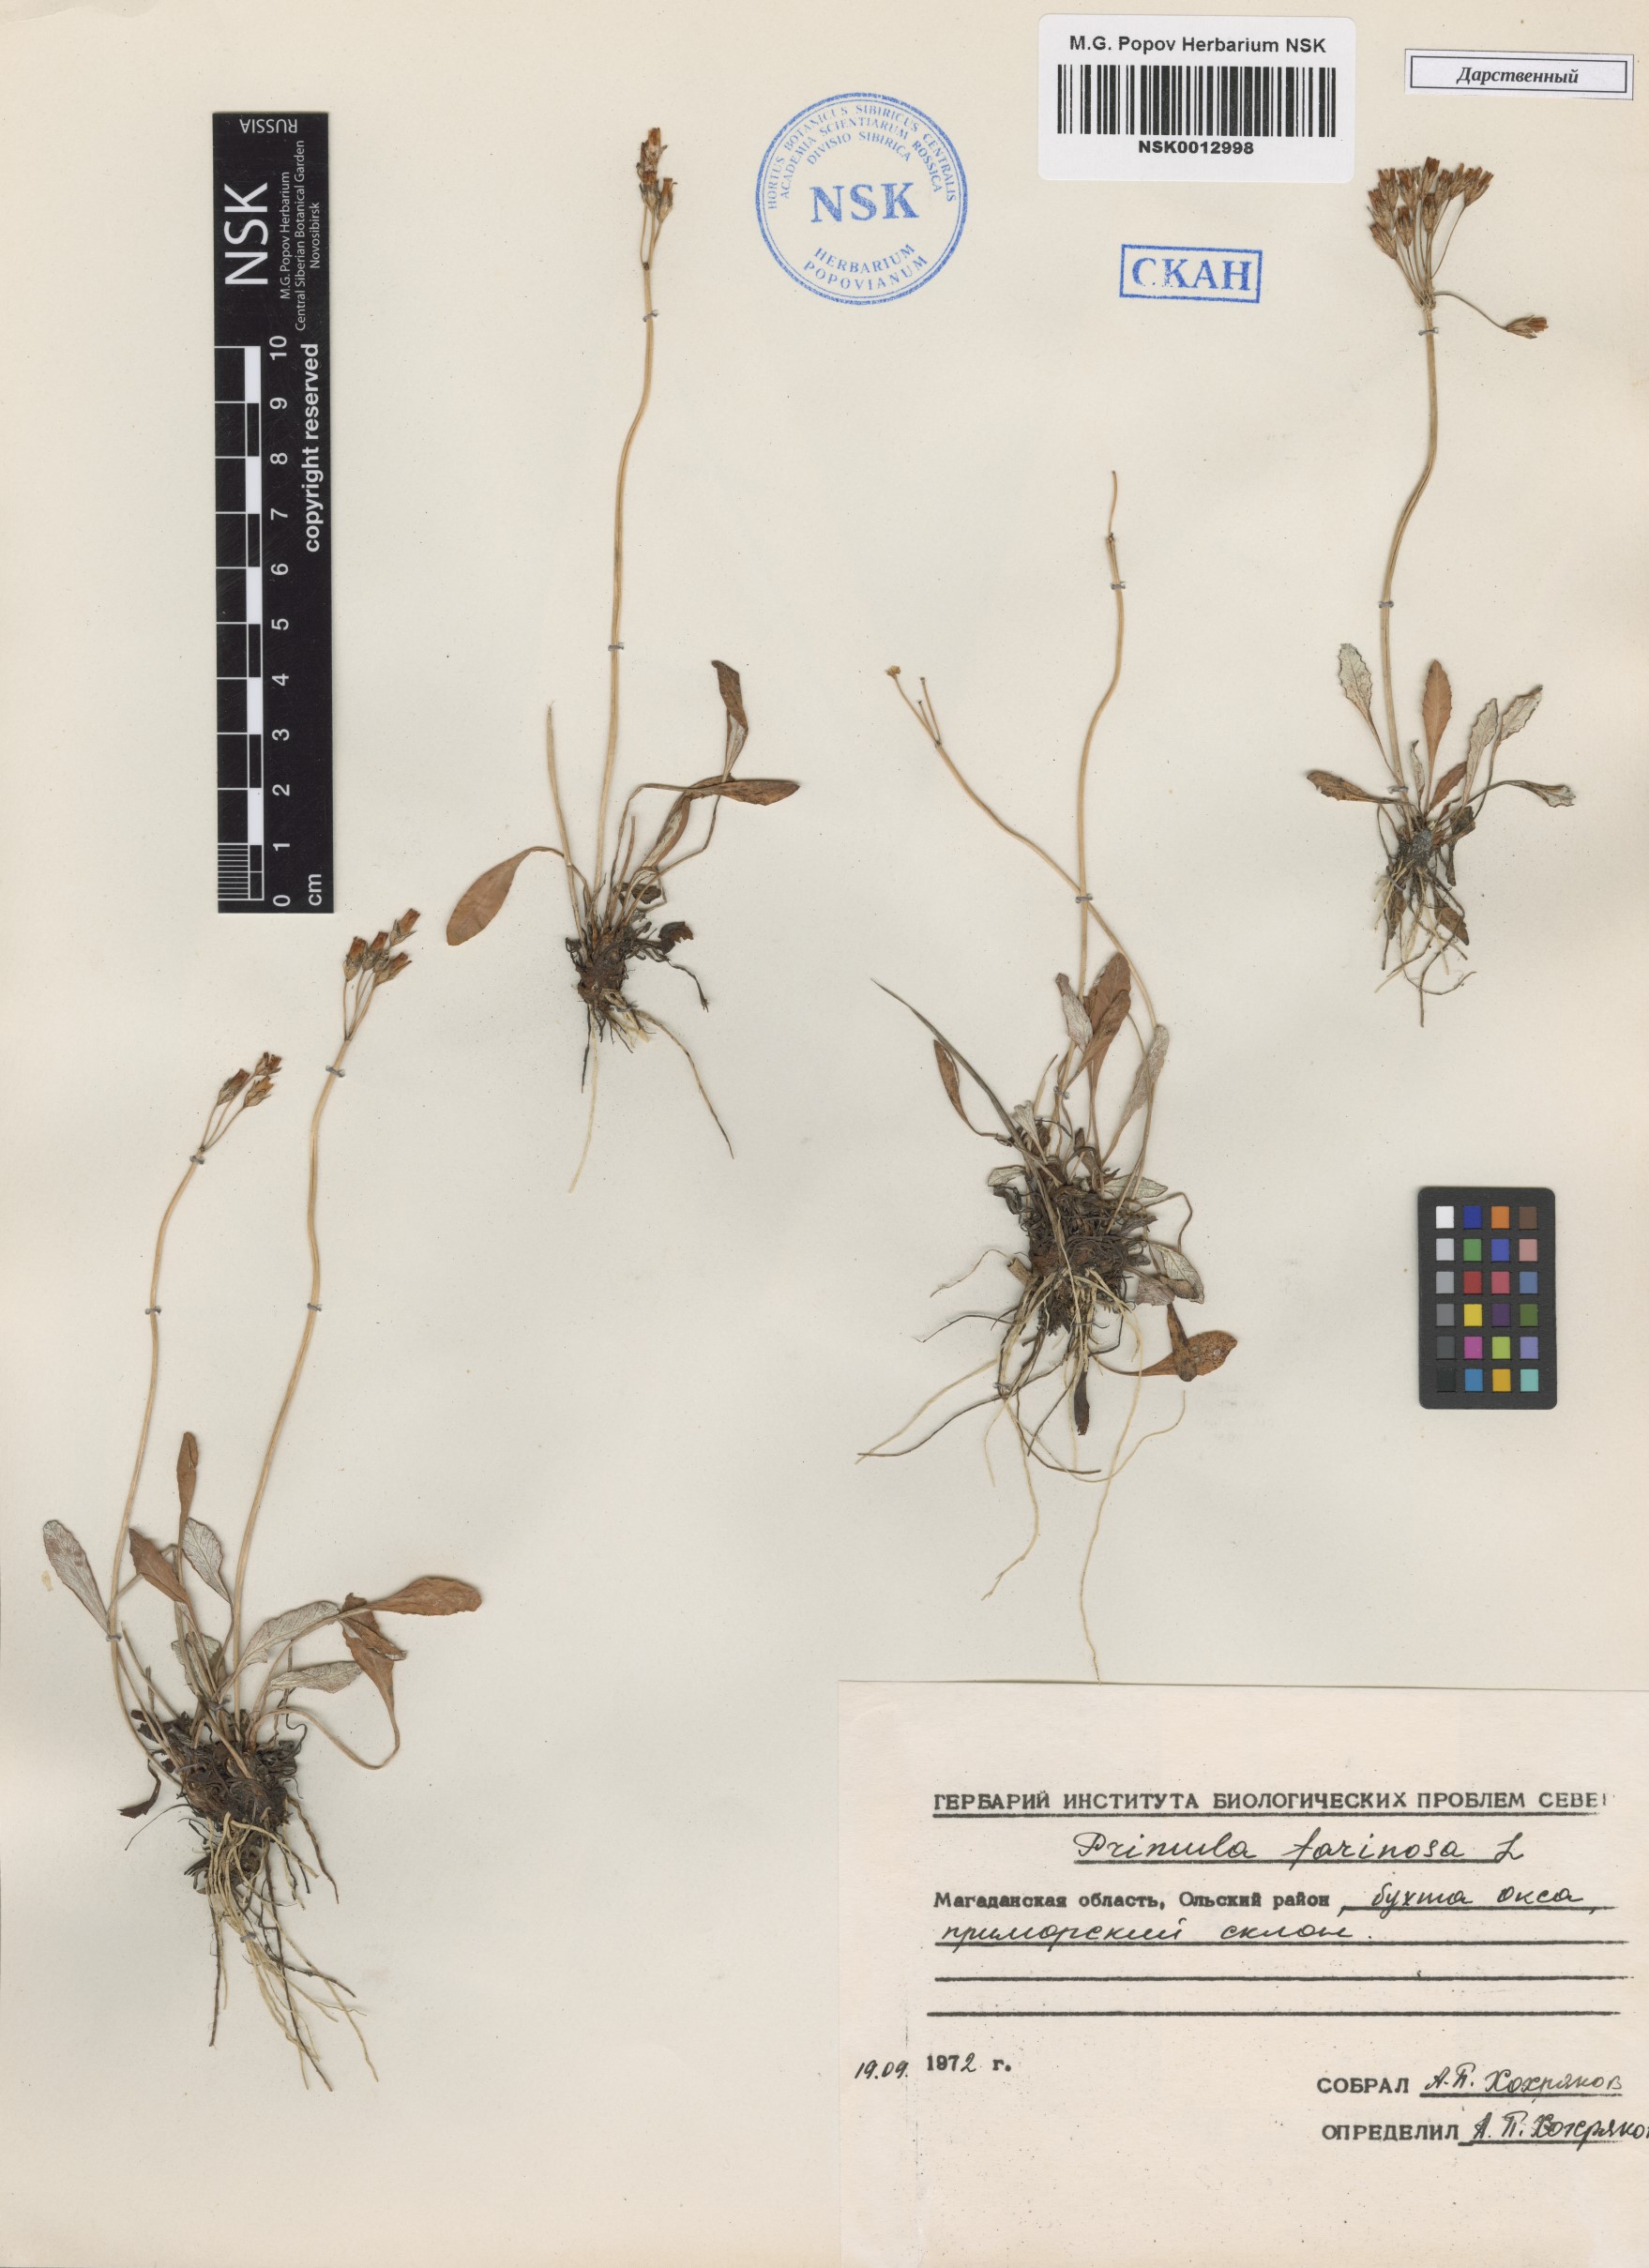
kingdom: Plantae
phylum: Tracheophyta
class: Magnoliopsida
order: Ericales
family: Primulaceae
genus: Primula
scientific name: Primula farinosa
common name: Bird's-eye primrose
